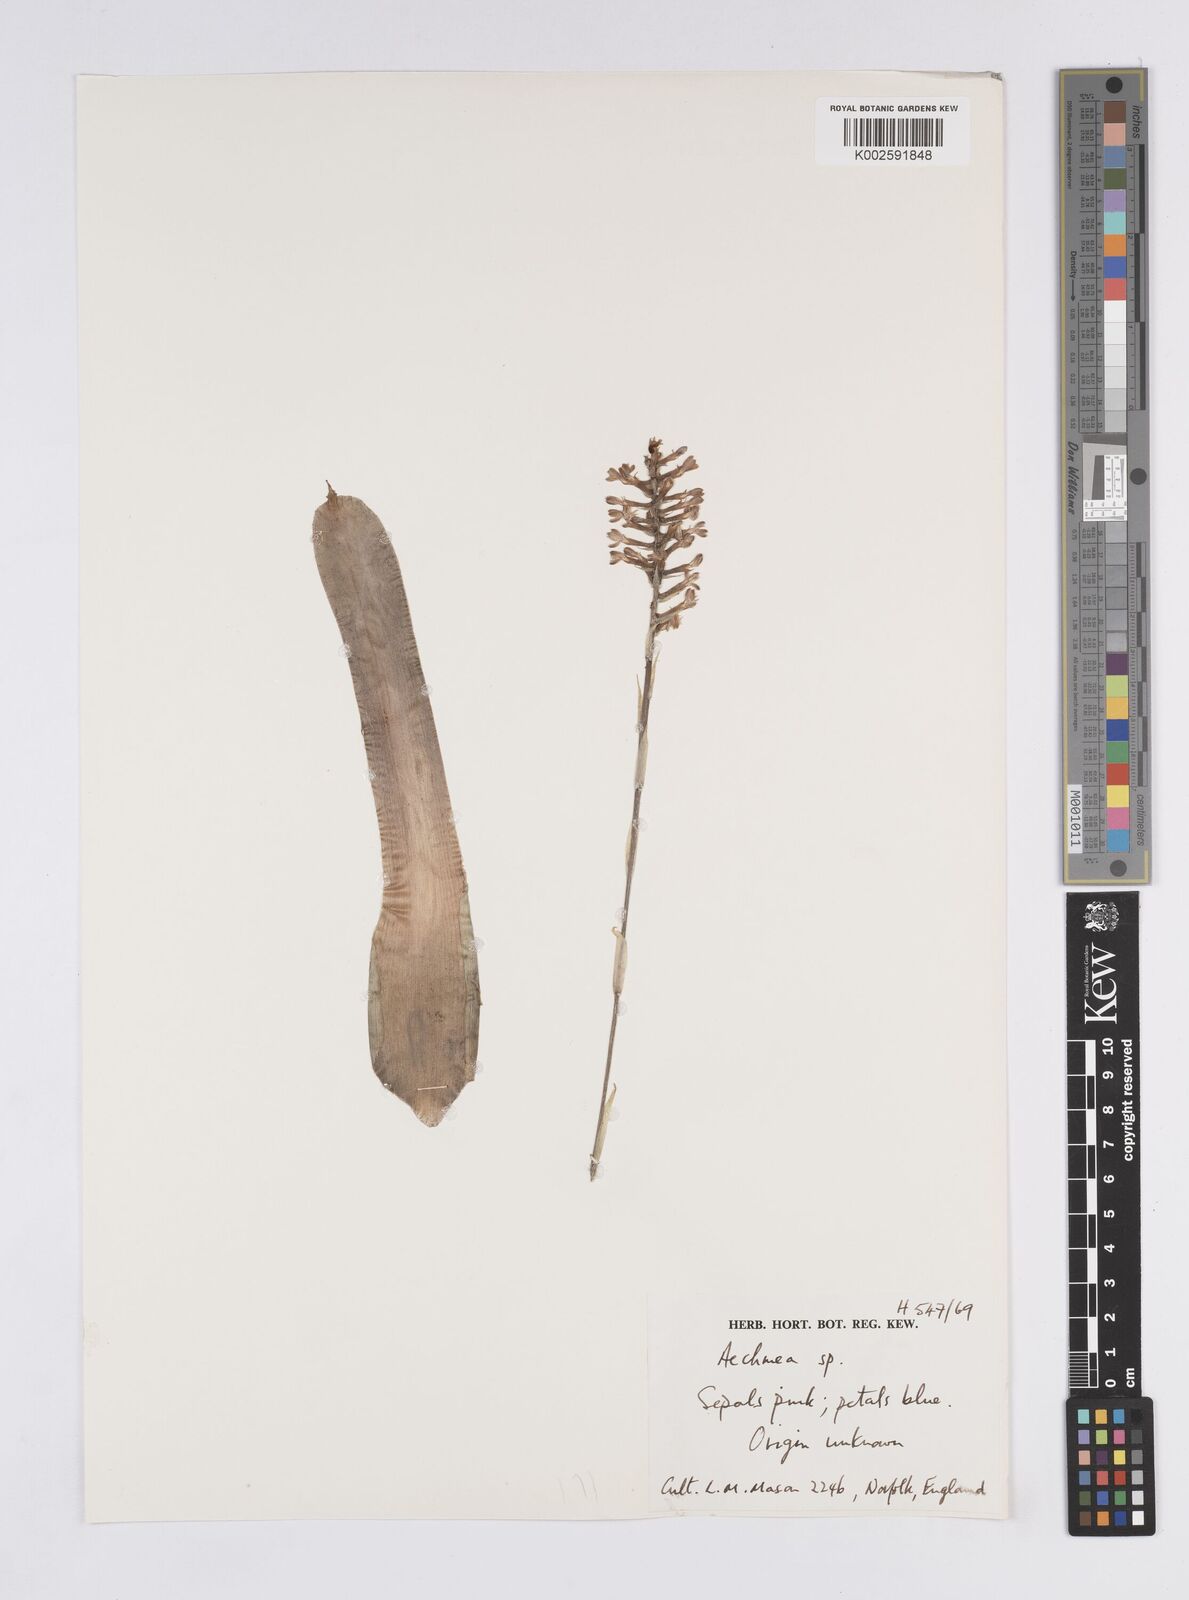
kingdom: Plantae
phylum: Tracheophyta
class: Liliopsida
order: Poales
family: Bromeliaceae
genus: Aechmea
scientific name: Aechmea
